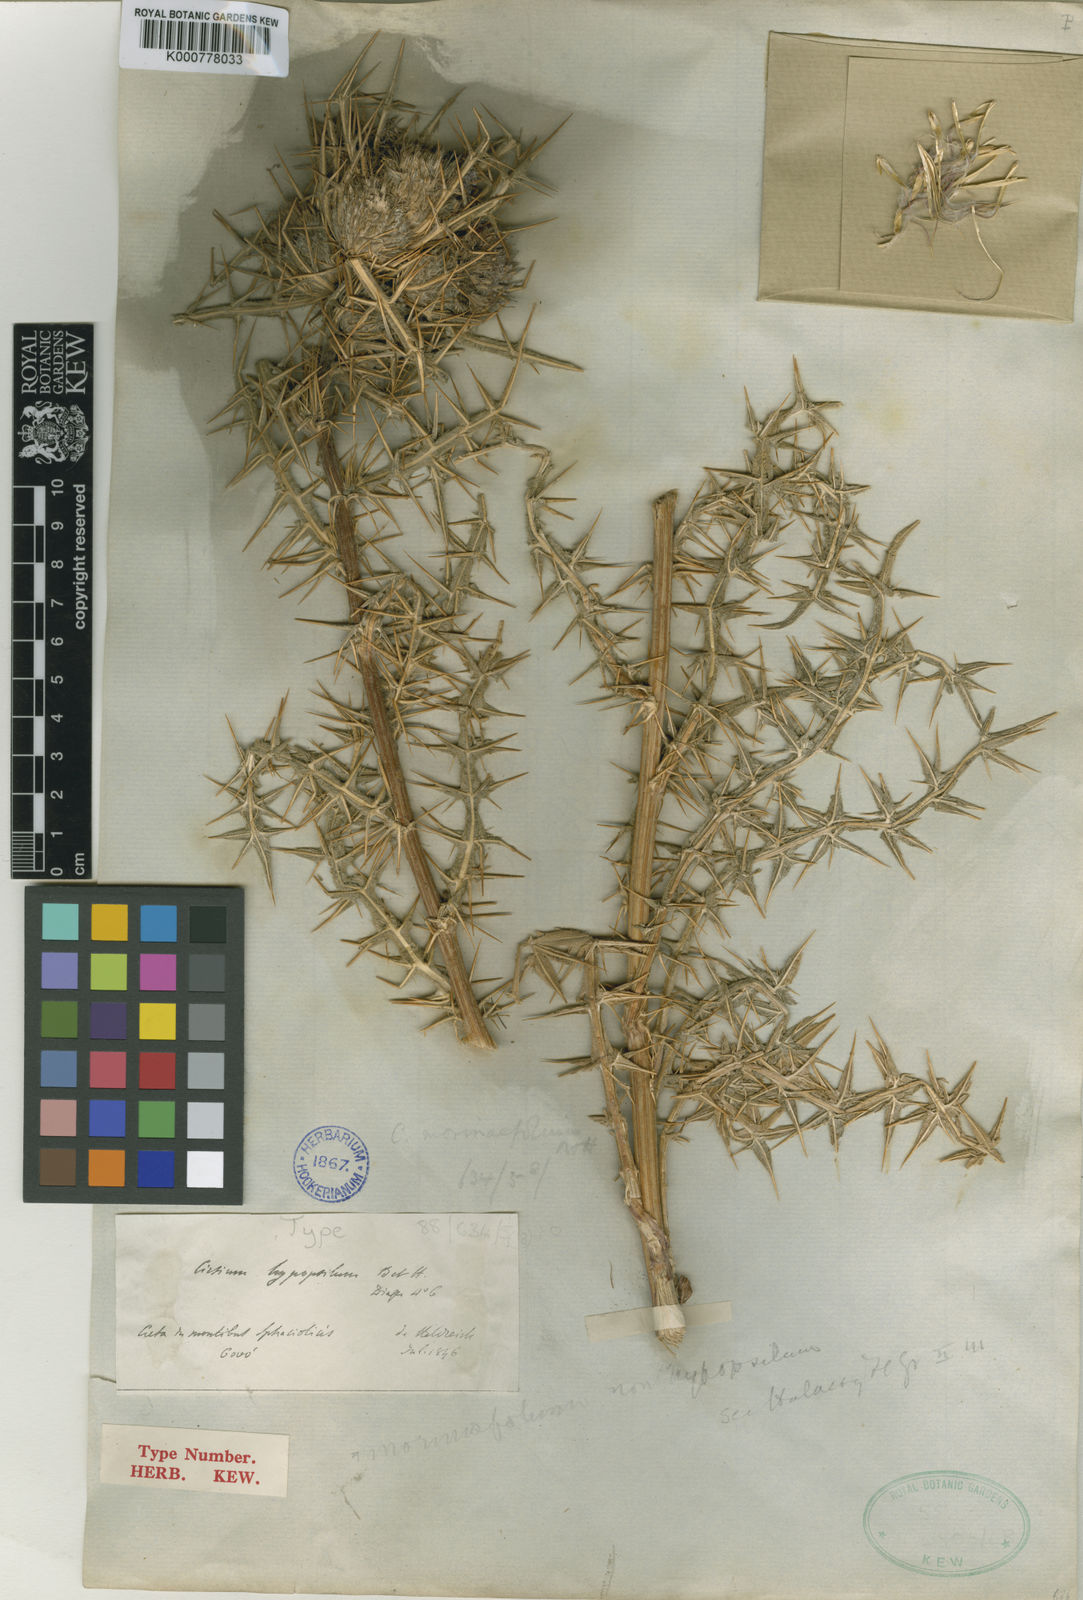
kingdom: Plantae
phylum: Tracheophyta
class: Magnoliopsida
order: Asterales
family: Asteraceae
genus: Lophiolepis
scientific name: Lophiolepis morinifolia
